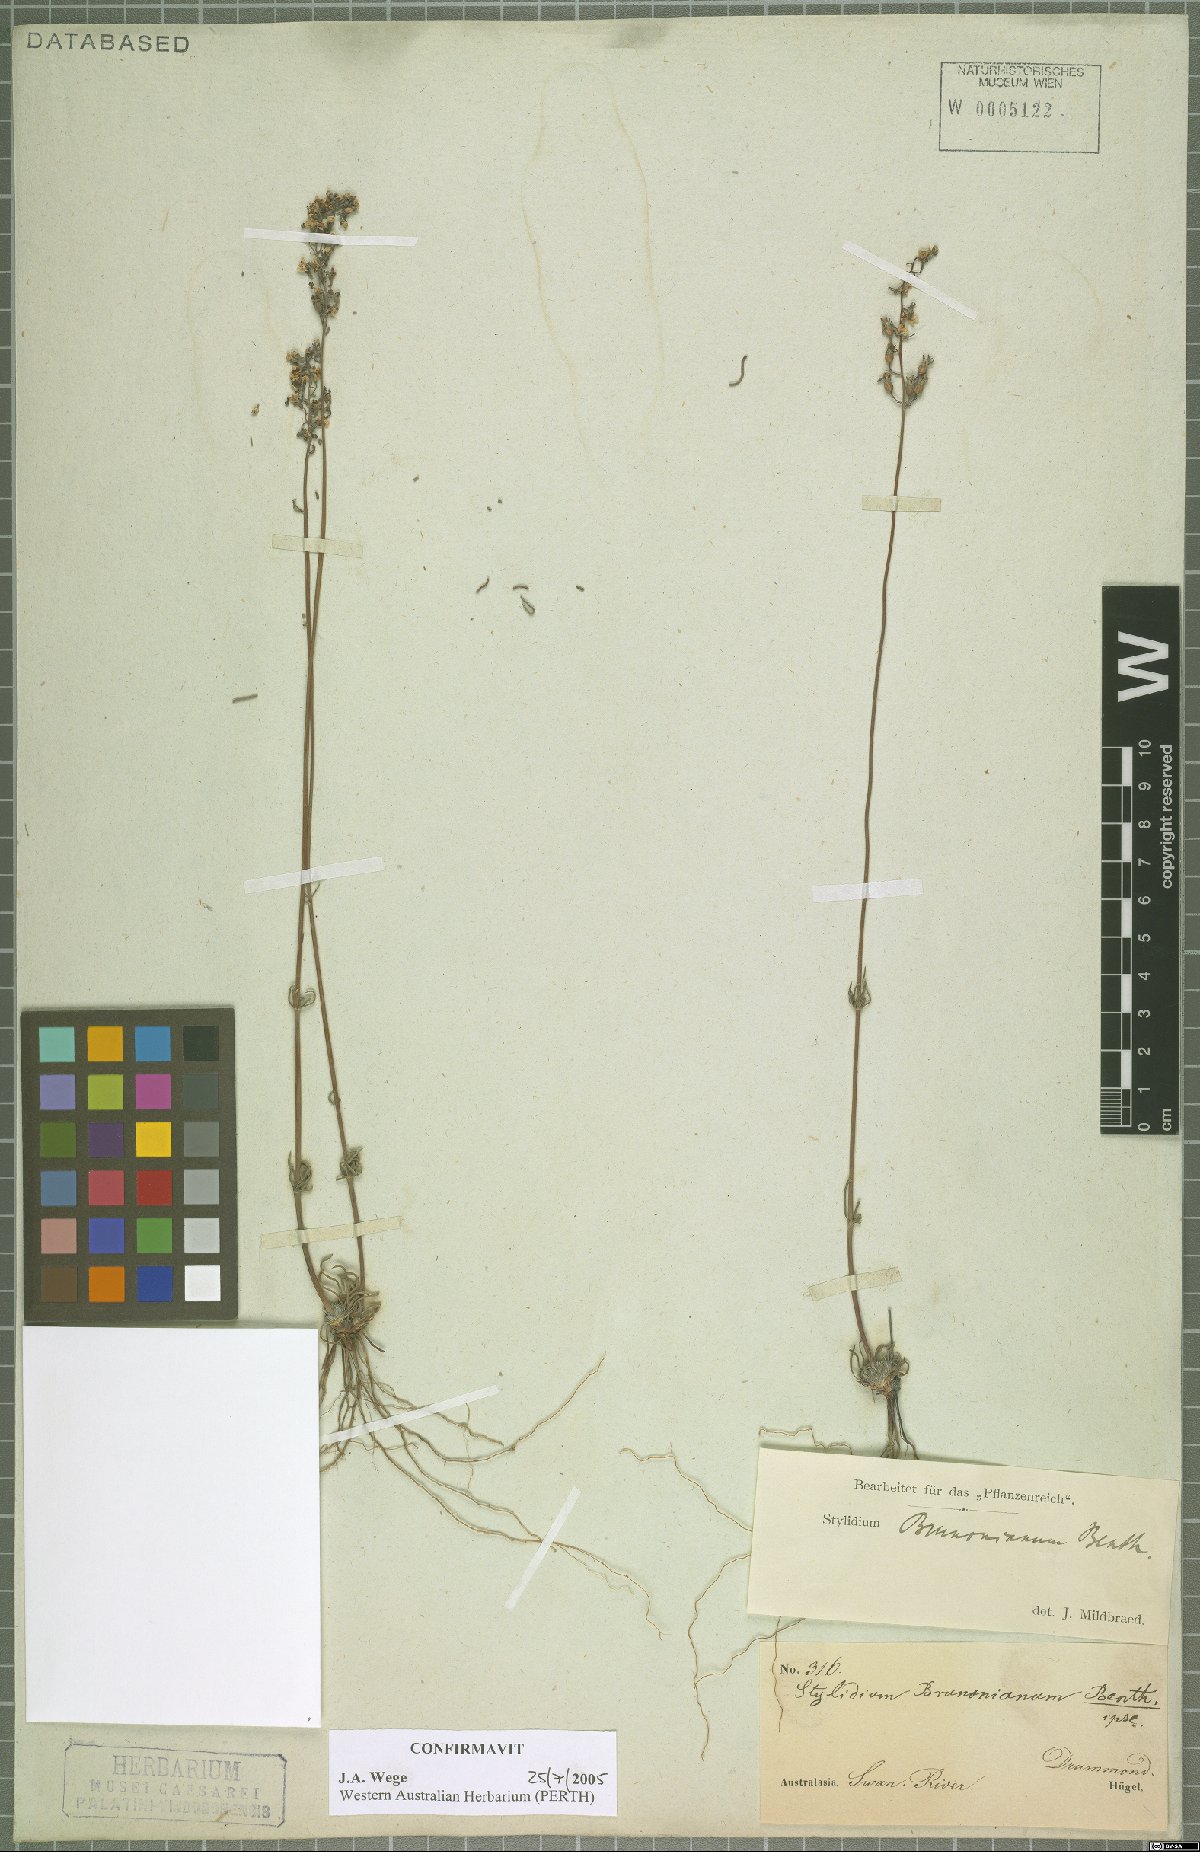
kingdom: Plantae
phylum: Tracheophyta
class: Magnoliopsida
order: Asterales
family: Stylidiaceae
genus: Stylidium
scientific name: Stylidium brunonianum
